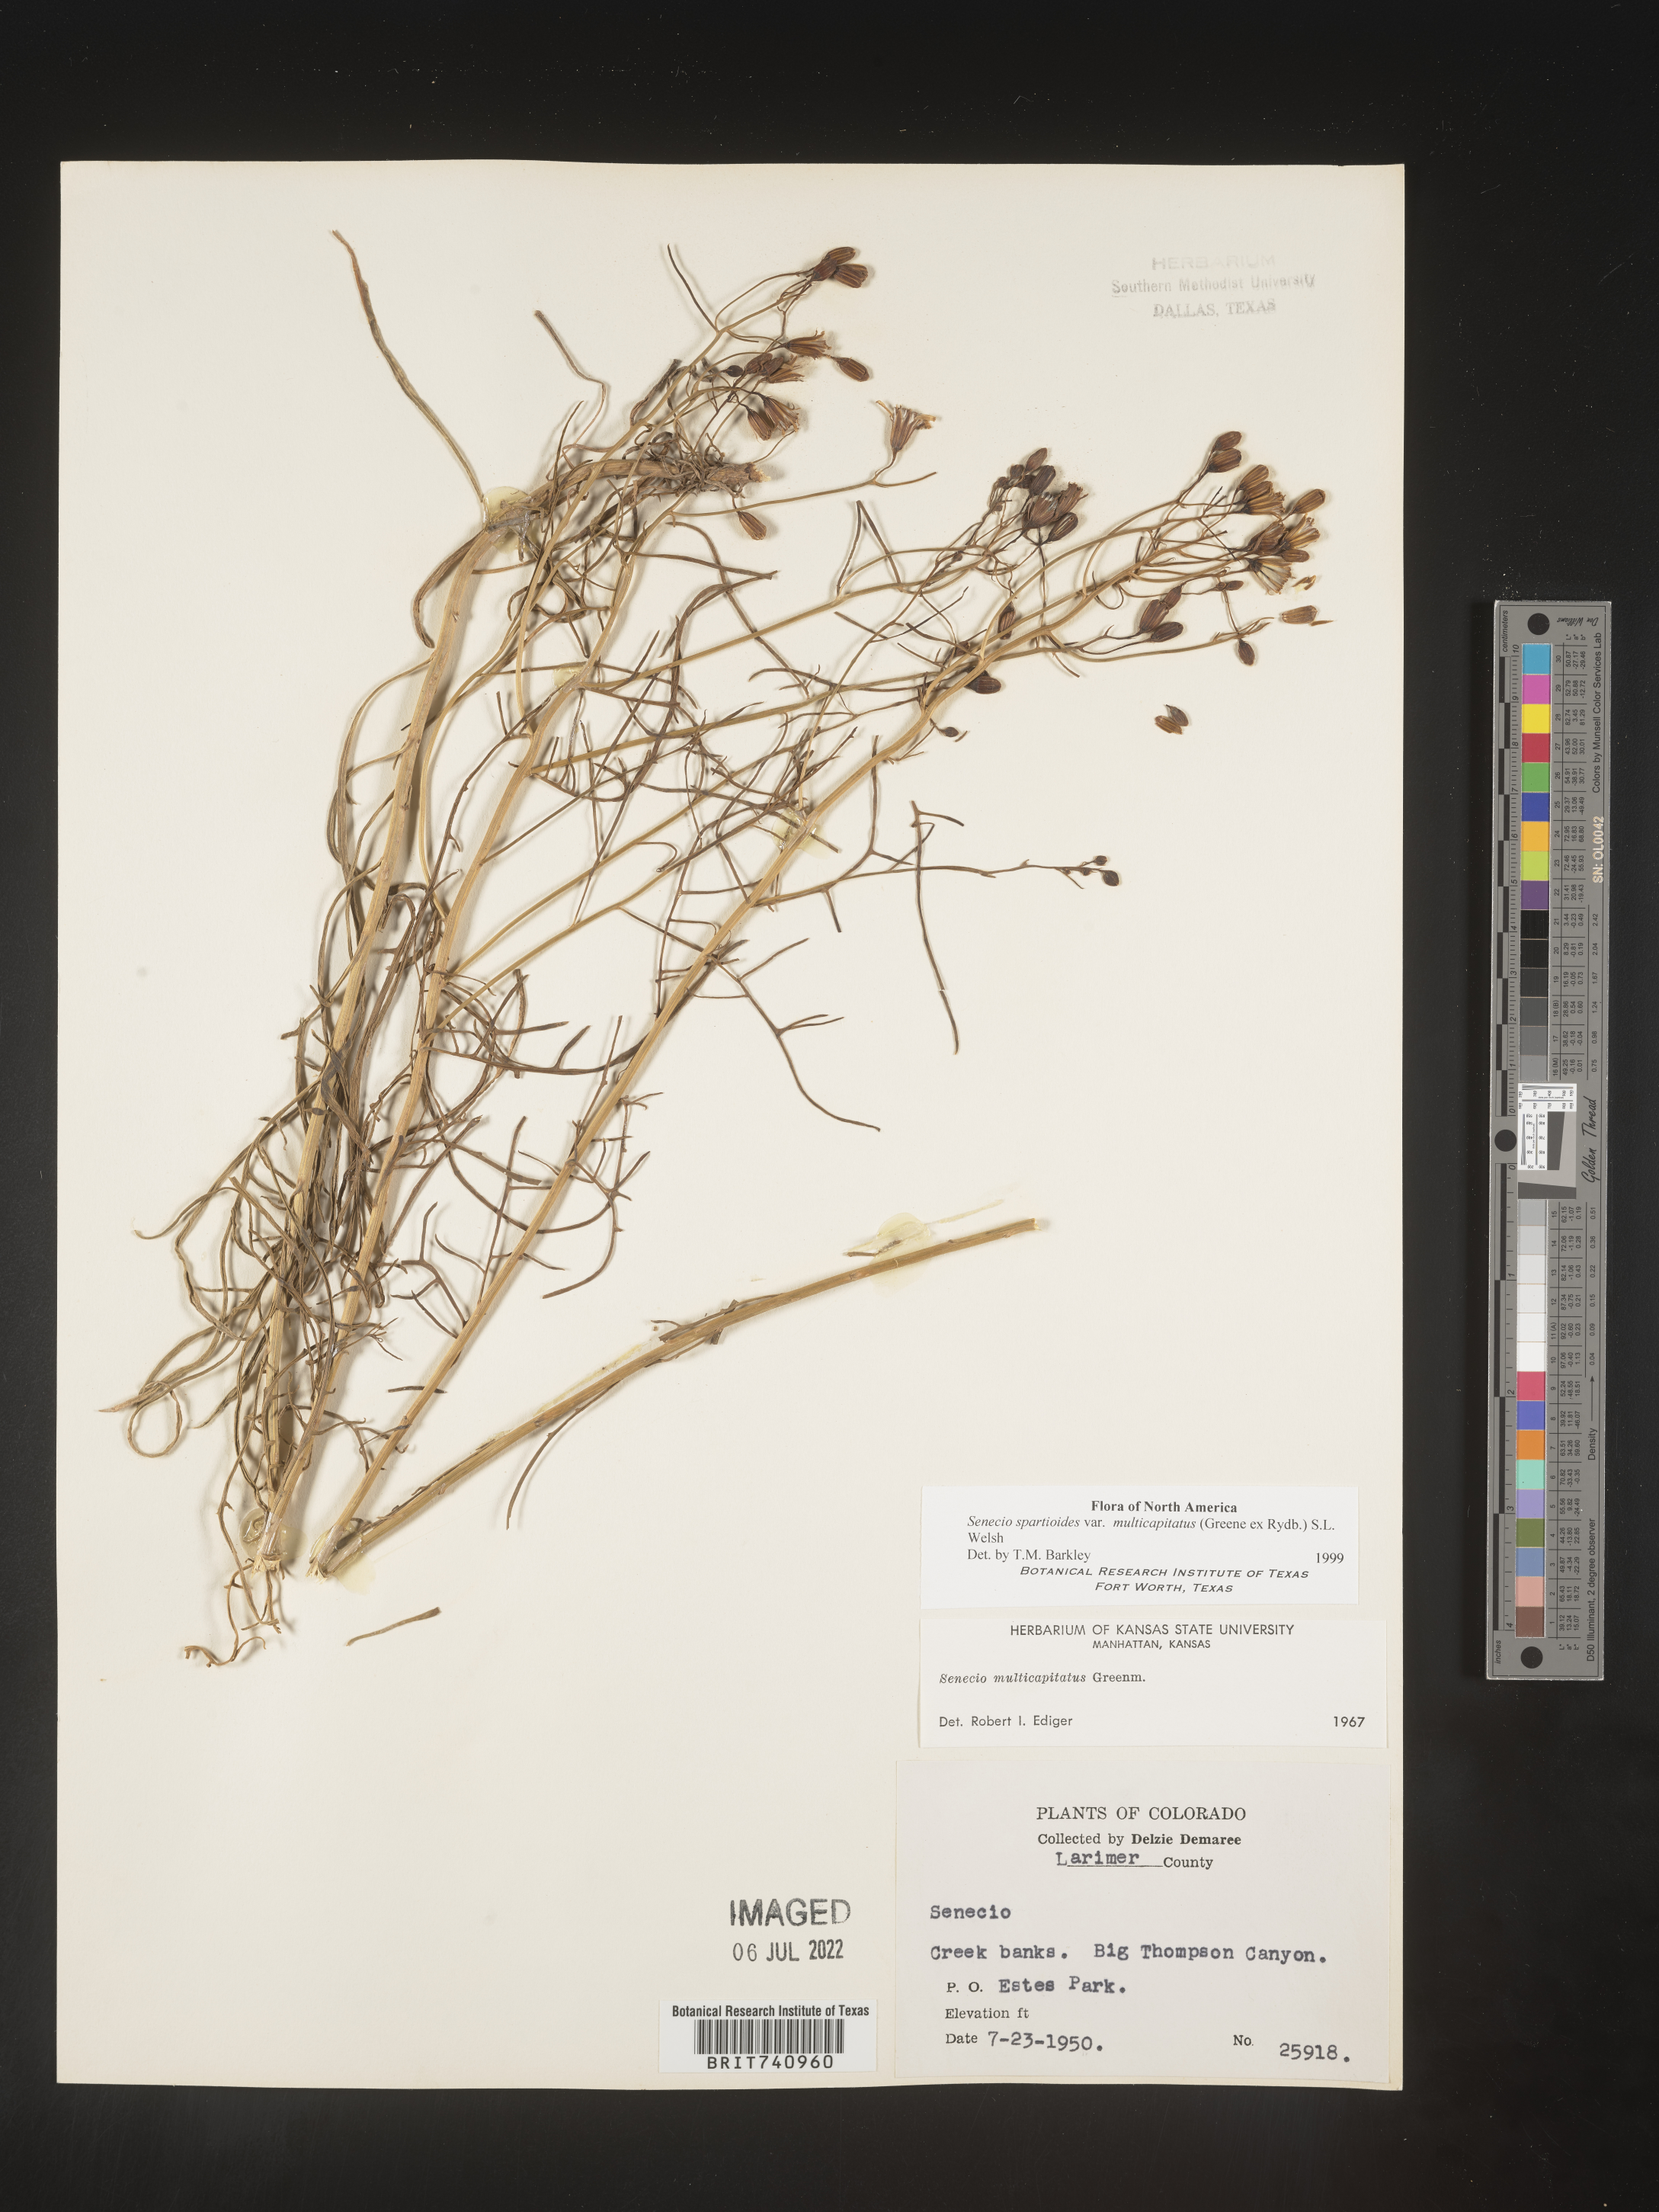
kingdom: Plantae
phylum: Tracheophyta
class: Magnoliopsida
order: Asterales
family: Asteraceae
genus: Senecio
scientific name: Senecio spartioides
